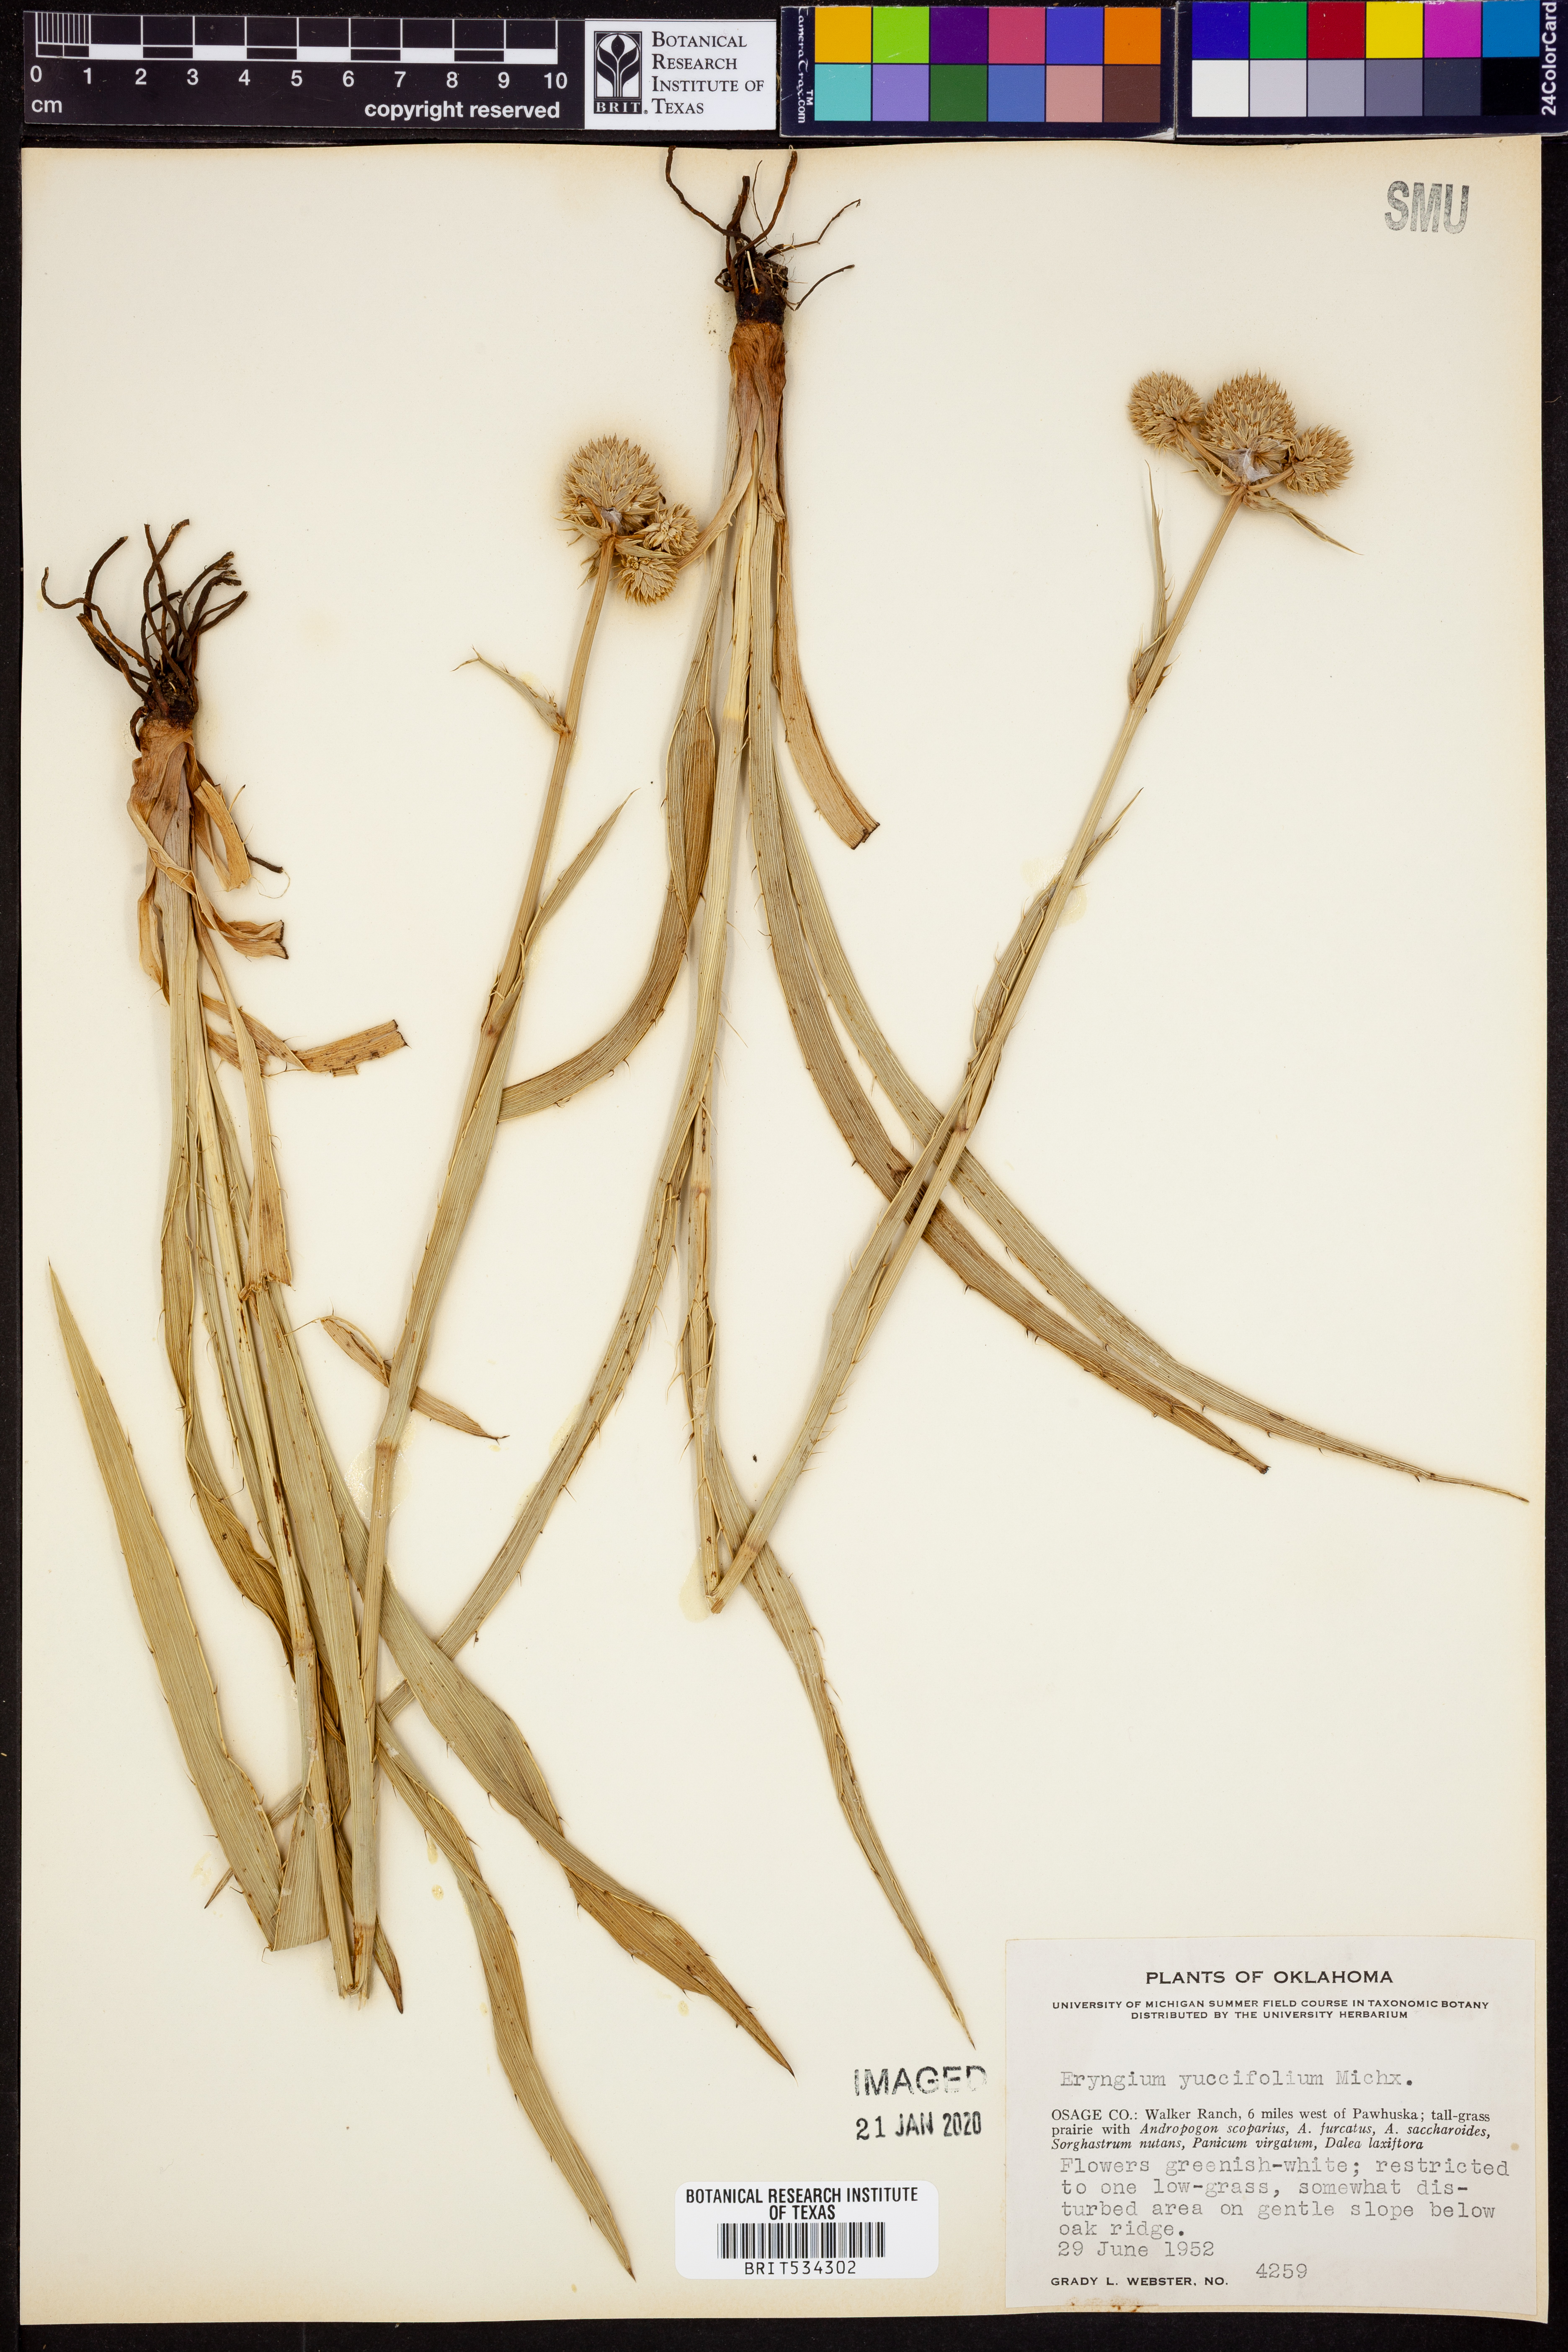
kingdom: Plantae
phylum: Tracheophyta
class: Magnoliopsida
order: Apiales
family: Apiaceae
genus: Eryngium
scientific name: Eryngium yuccifolium
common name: Button eryngo
